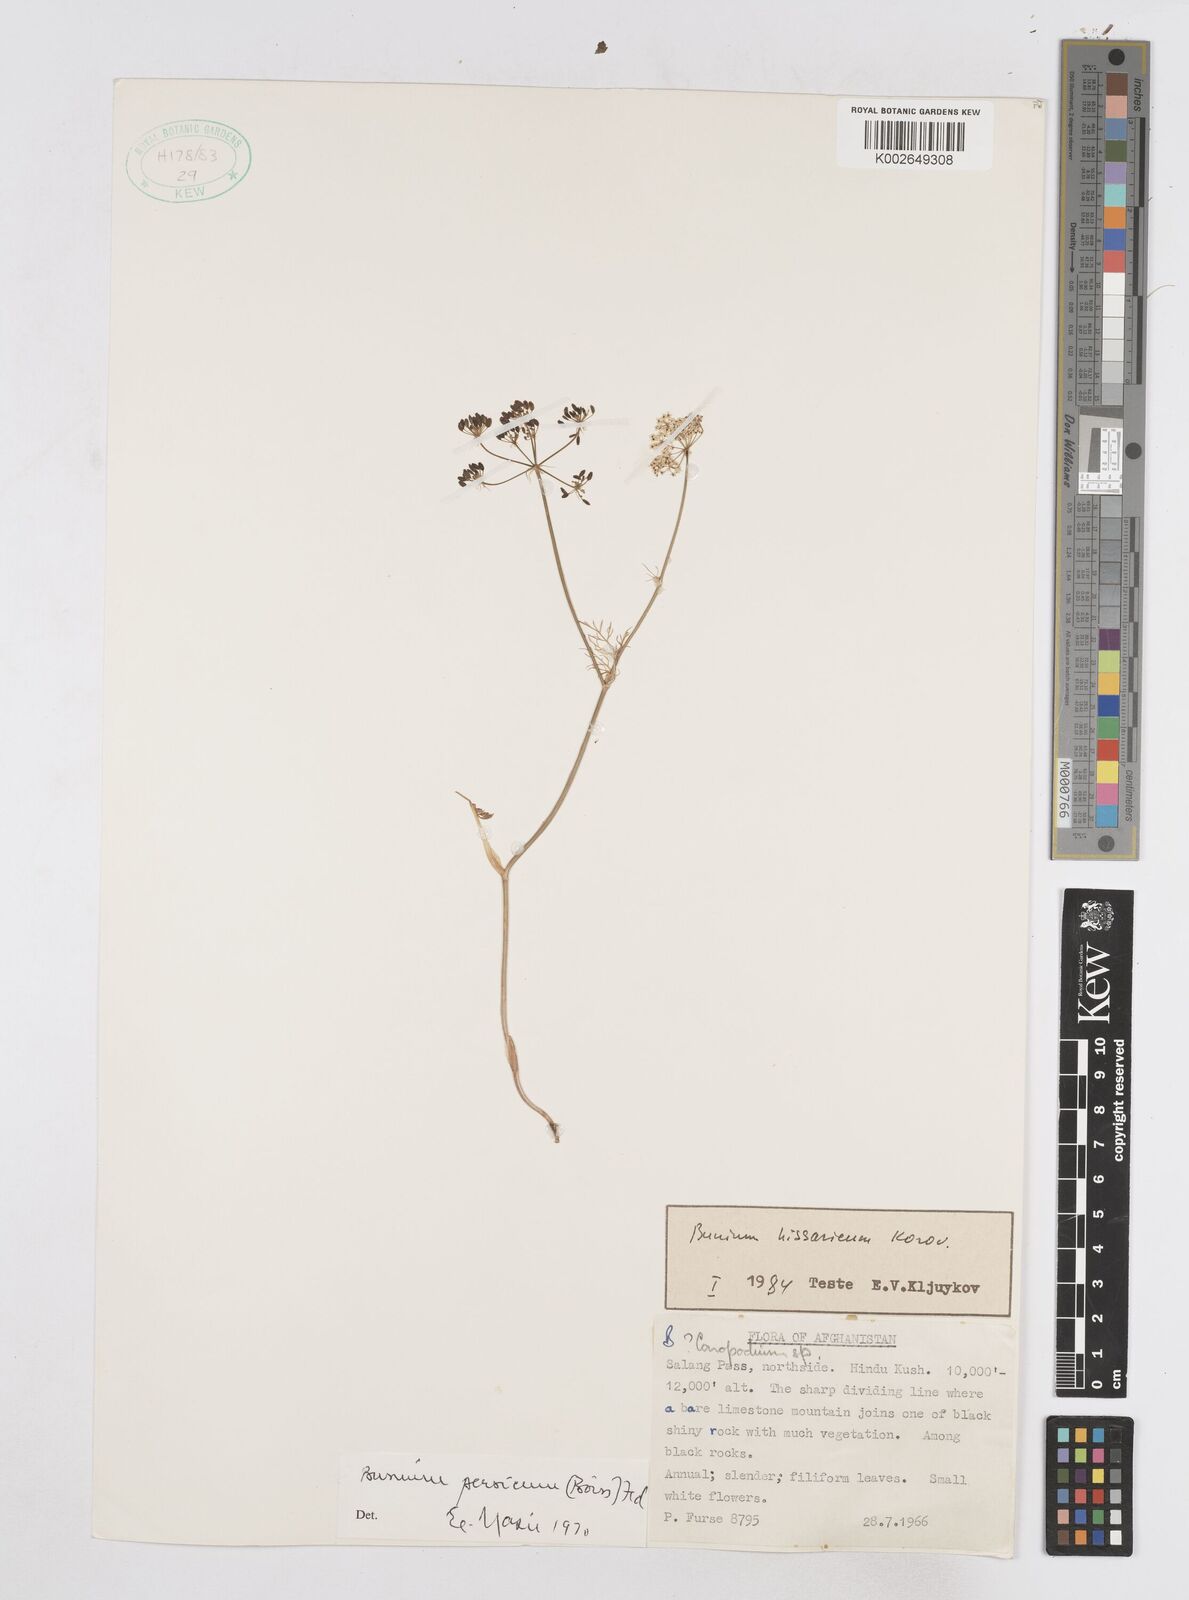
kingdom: Plantae
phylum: Tracheophyta
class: Magnoliopsida
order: Apiales
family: Apiaceae
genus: Elwendia
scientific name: Elwendia persica
